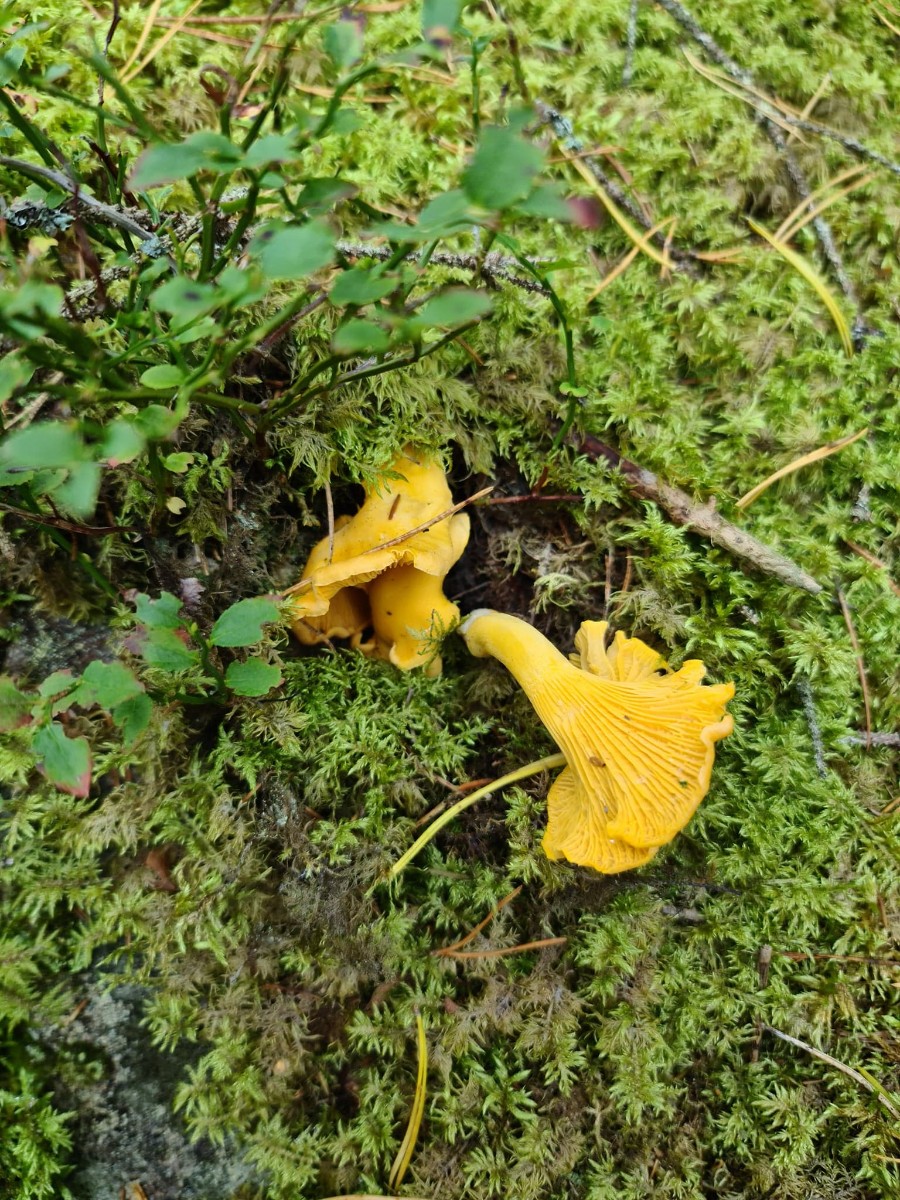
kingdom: Fungi
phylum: Basidiomycota
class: Agaricomycetes
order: Cantharellales
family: Hydnaceae
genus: Cantharellus
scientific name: Cantharellus cibarius
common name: almindelig kantarel
